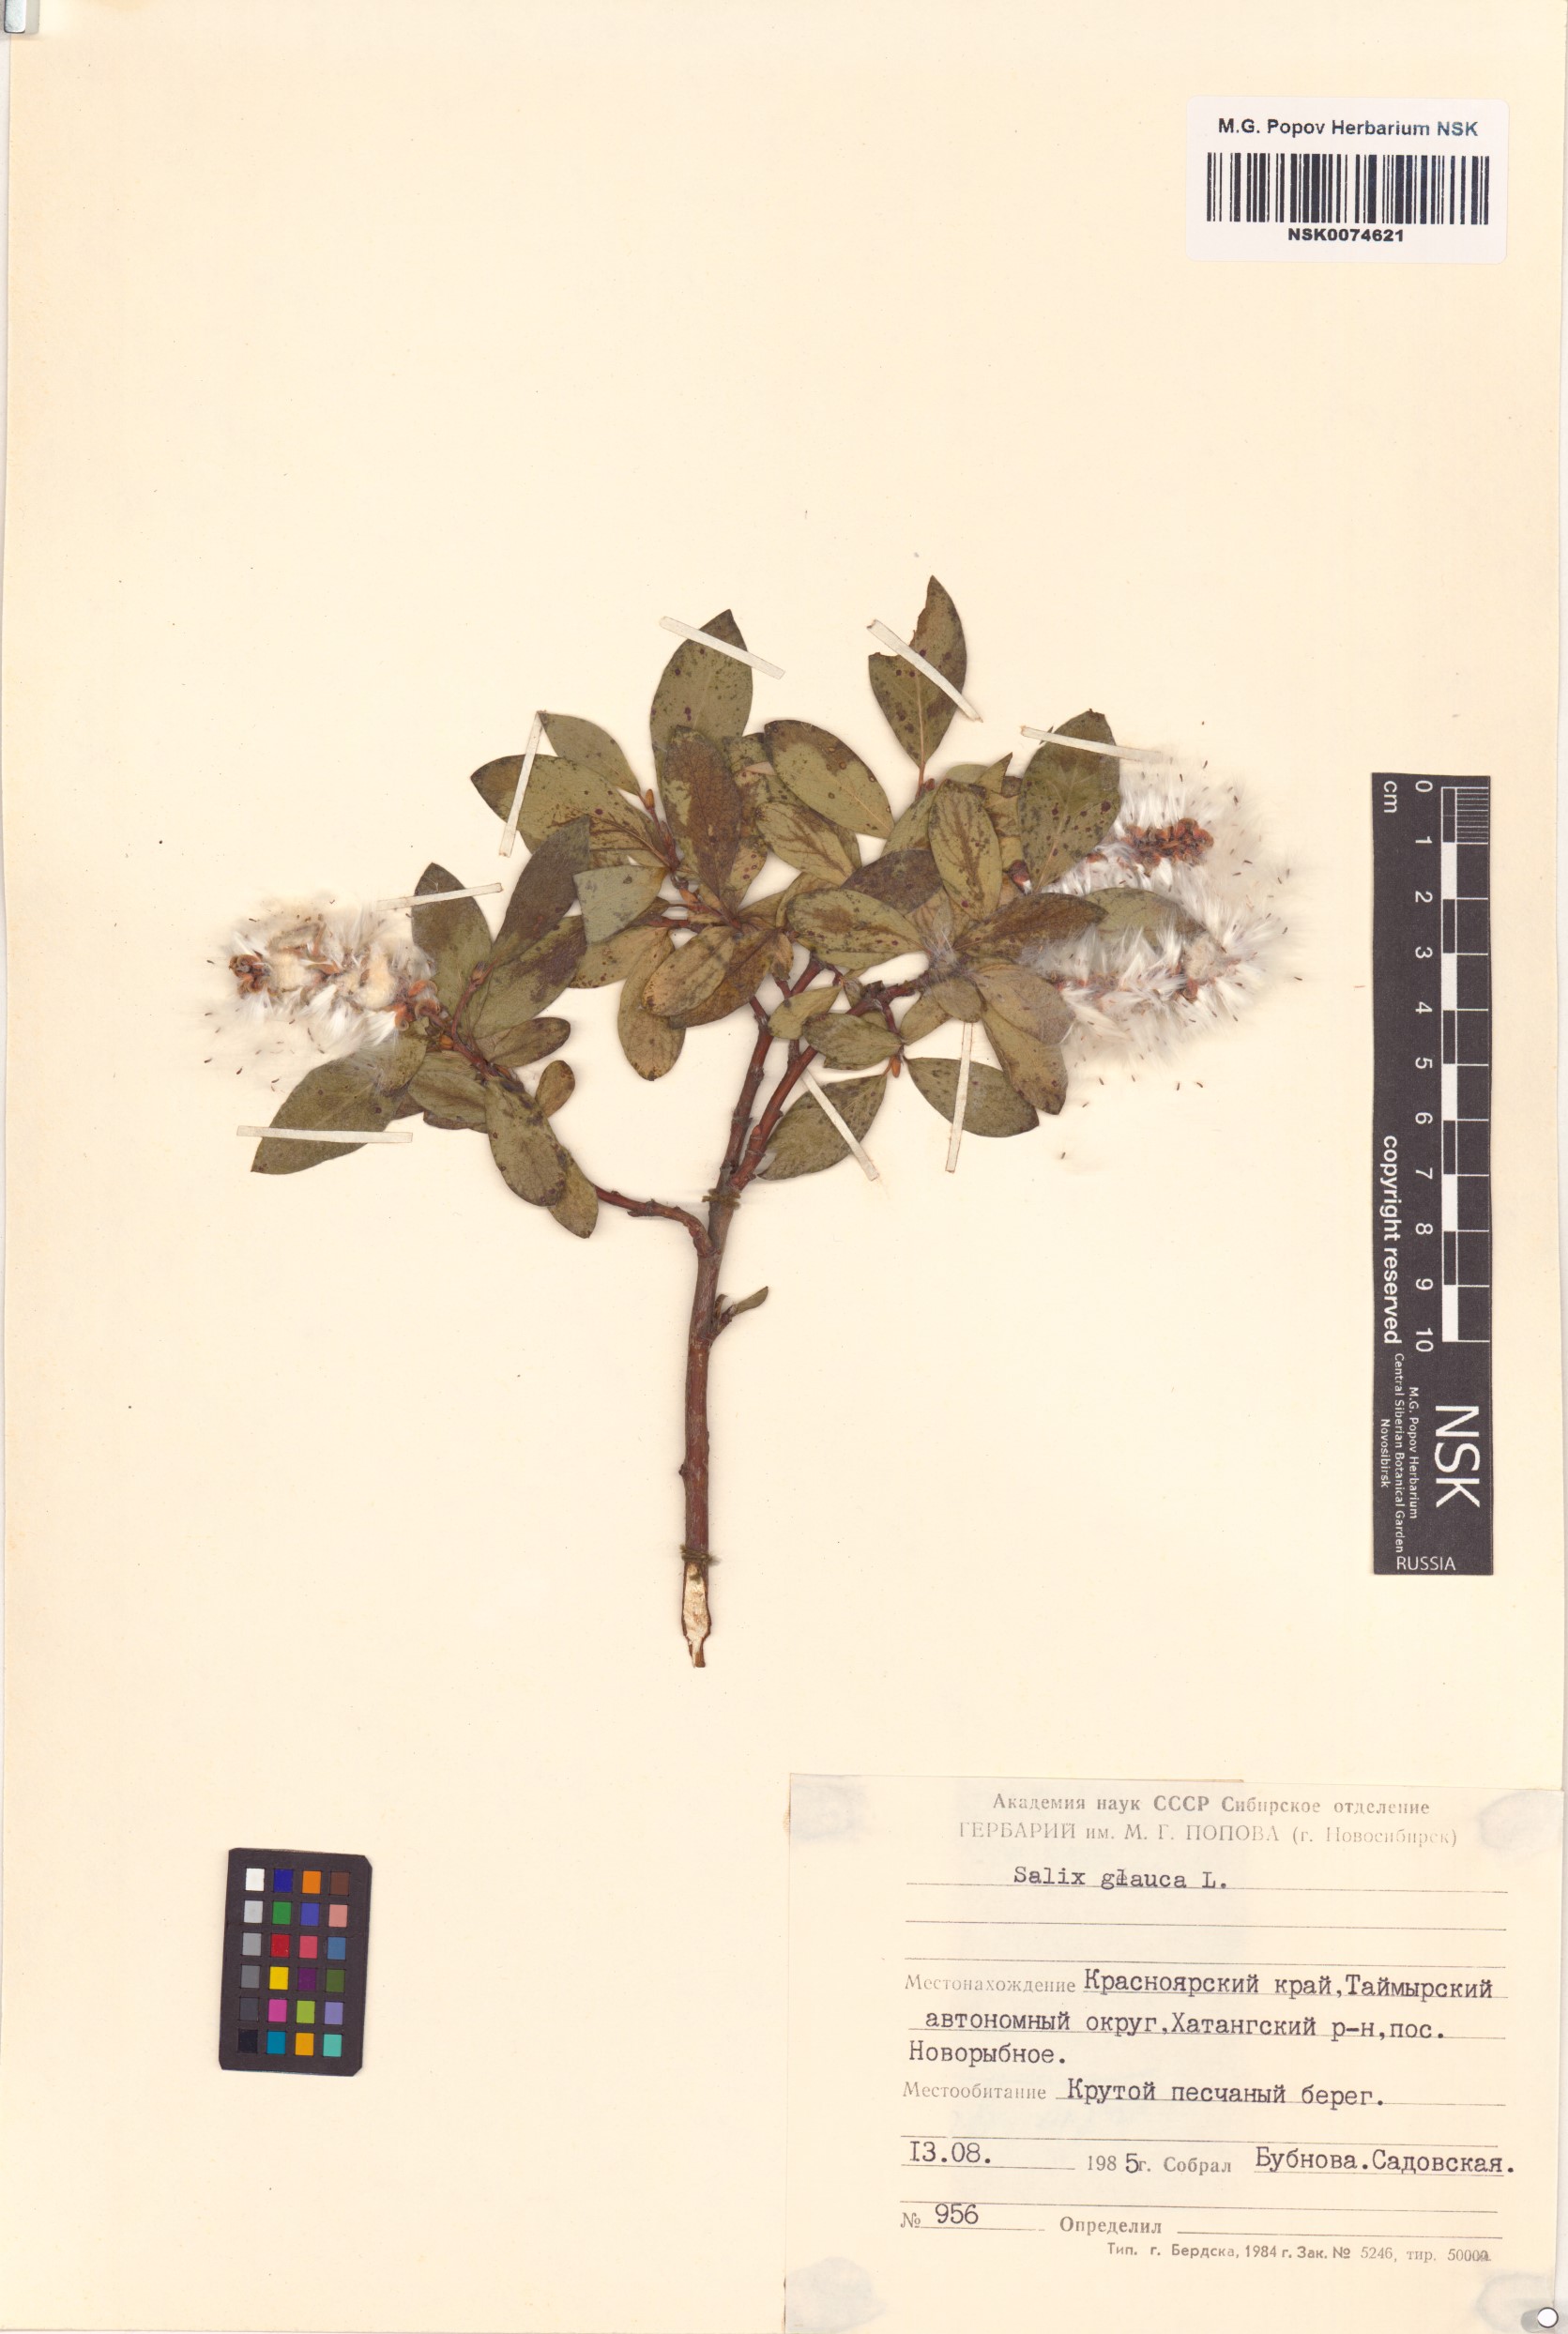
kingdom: Plantae
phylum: Tracheophyta
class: Magnoliopsida
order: Malpighiales
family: Salicaceae
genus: Salix
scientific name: Salix glauca
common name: Glaucous willow
